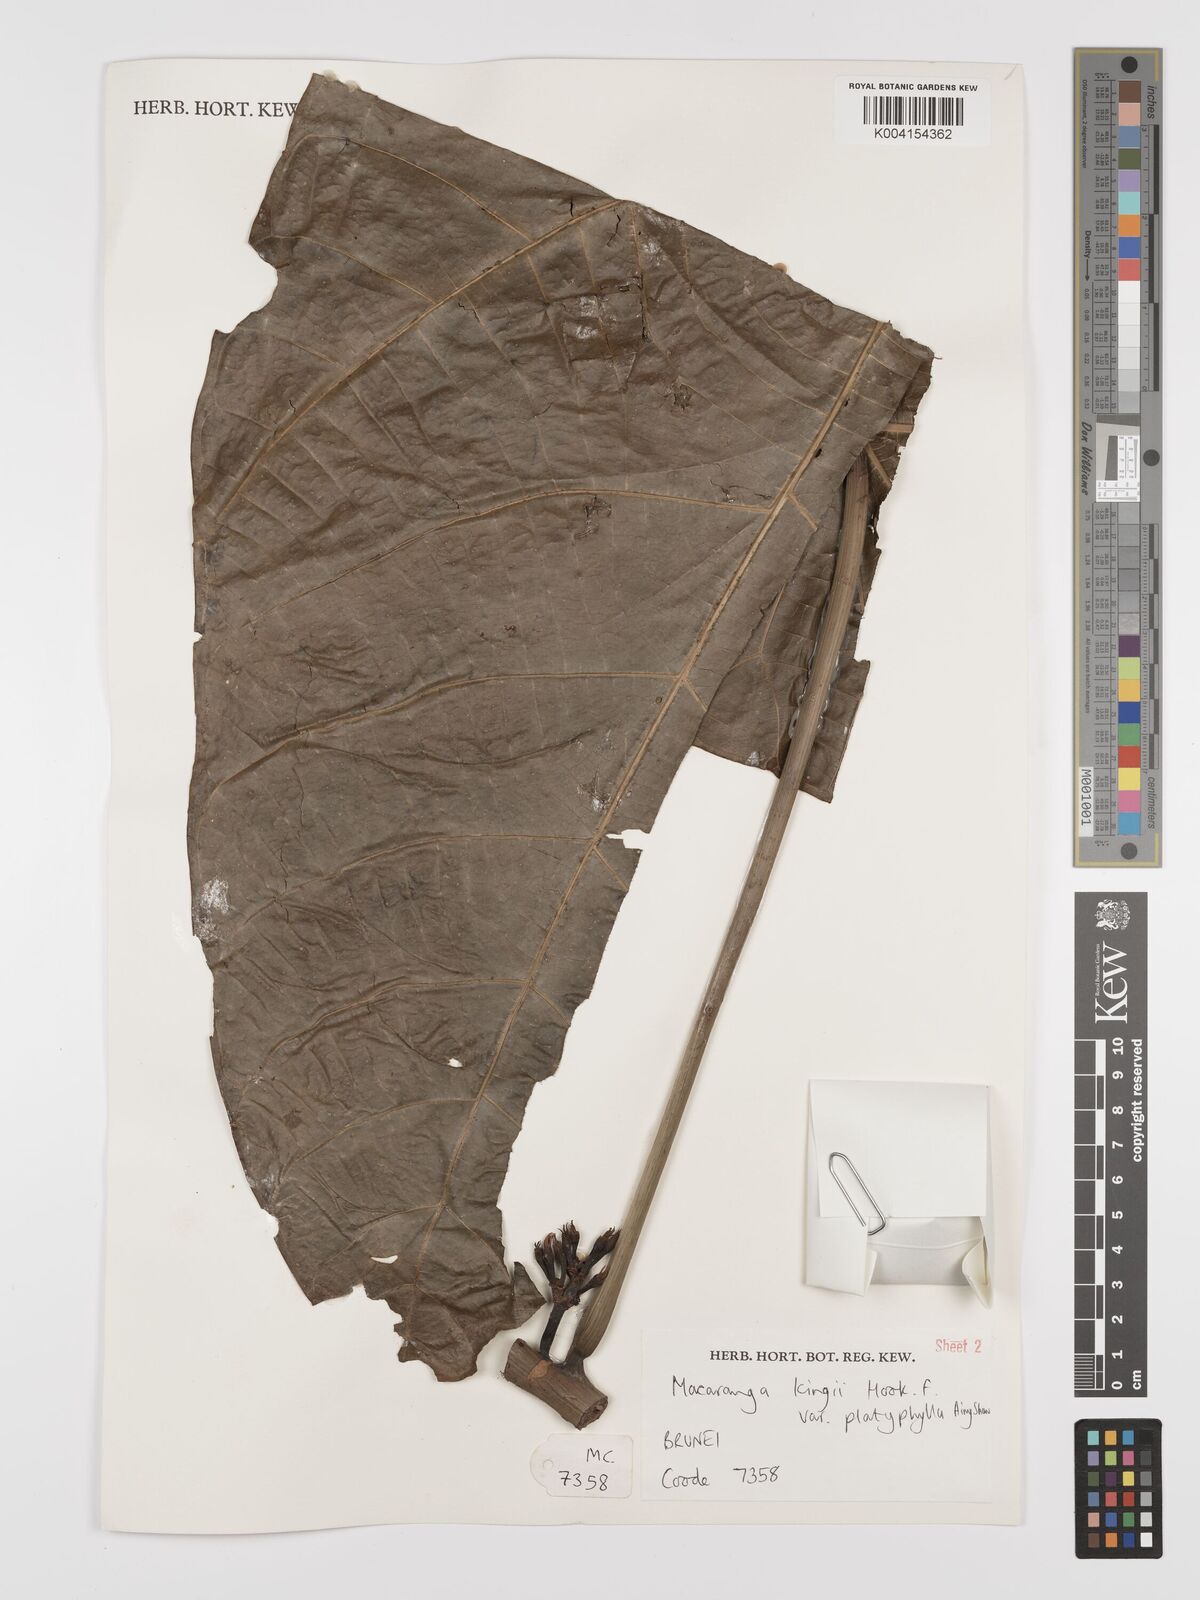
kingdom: Plantae
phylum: Tracheophyta
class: Magnoliopsida
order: Malpighiales
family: Euphorbiaceae
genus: Macaranga
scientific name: Macaranga umbrosa
